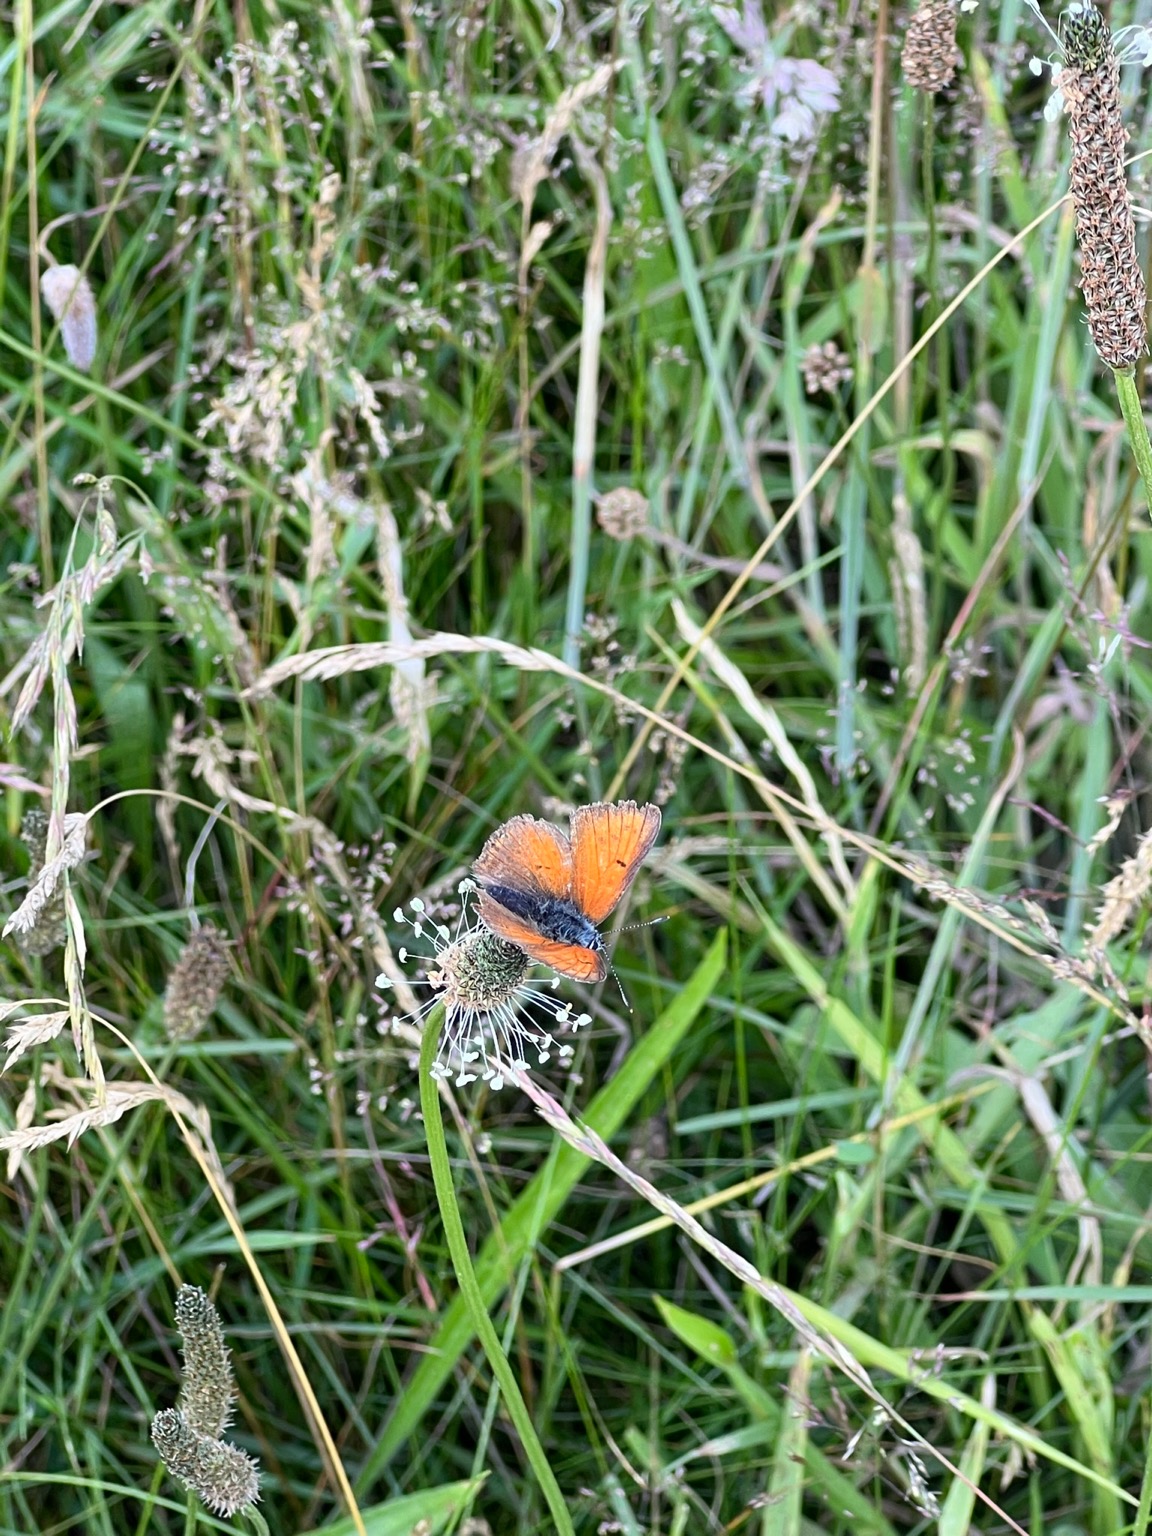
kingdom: Animalia
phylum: Arthropoda
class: Insecta
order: Lepidoptera
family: Lycaenidae
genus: Palaeochrysophanus
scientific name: Palaeochrysophanus hippothoe
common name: Violetrandet ildfugl
